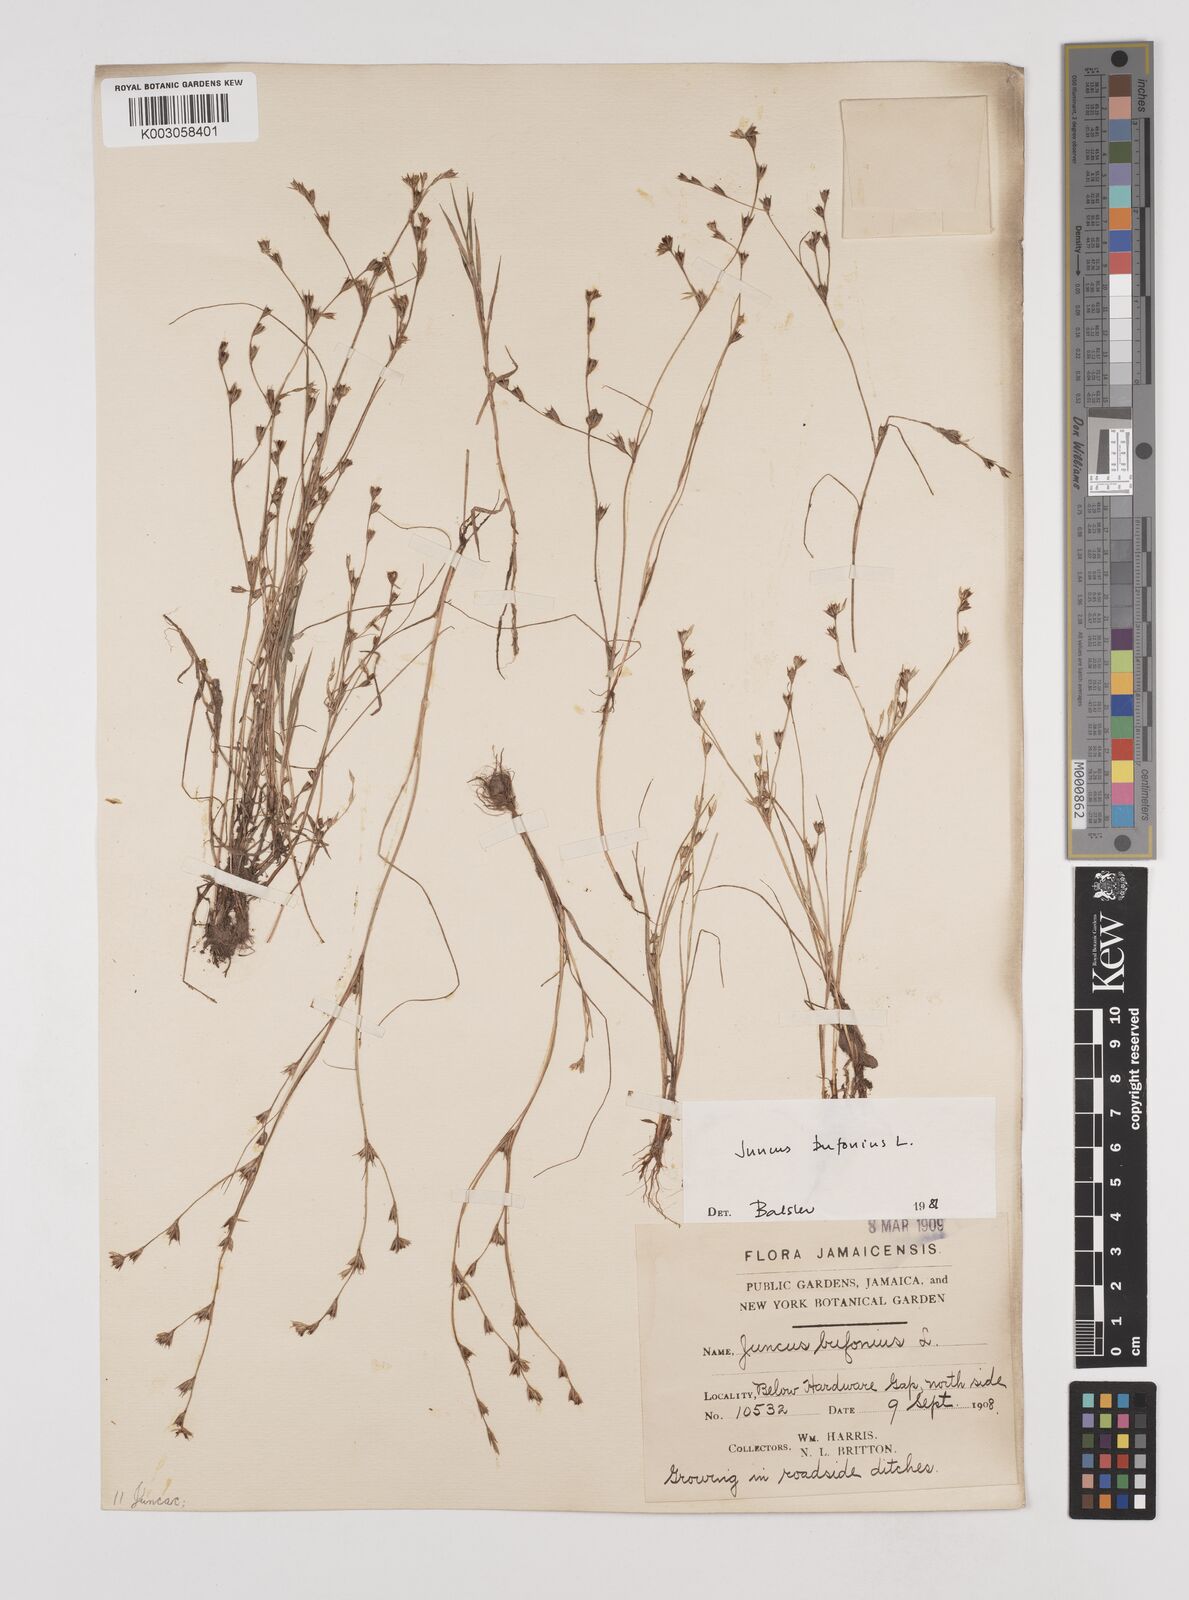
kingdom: Plantae
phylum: Tracheophyta
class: Liliopsida
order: Poales
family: Juncaceae
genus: Juncus
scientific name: Juncus bufonius
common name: Toad rush
